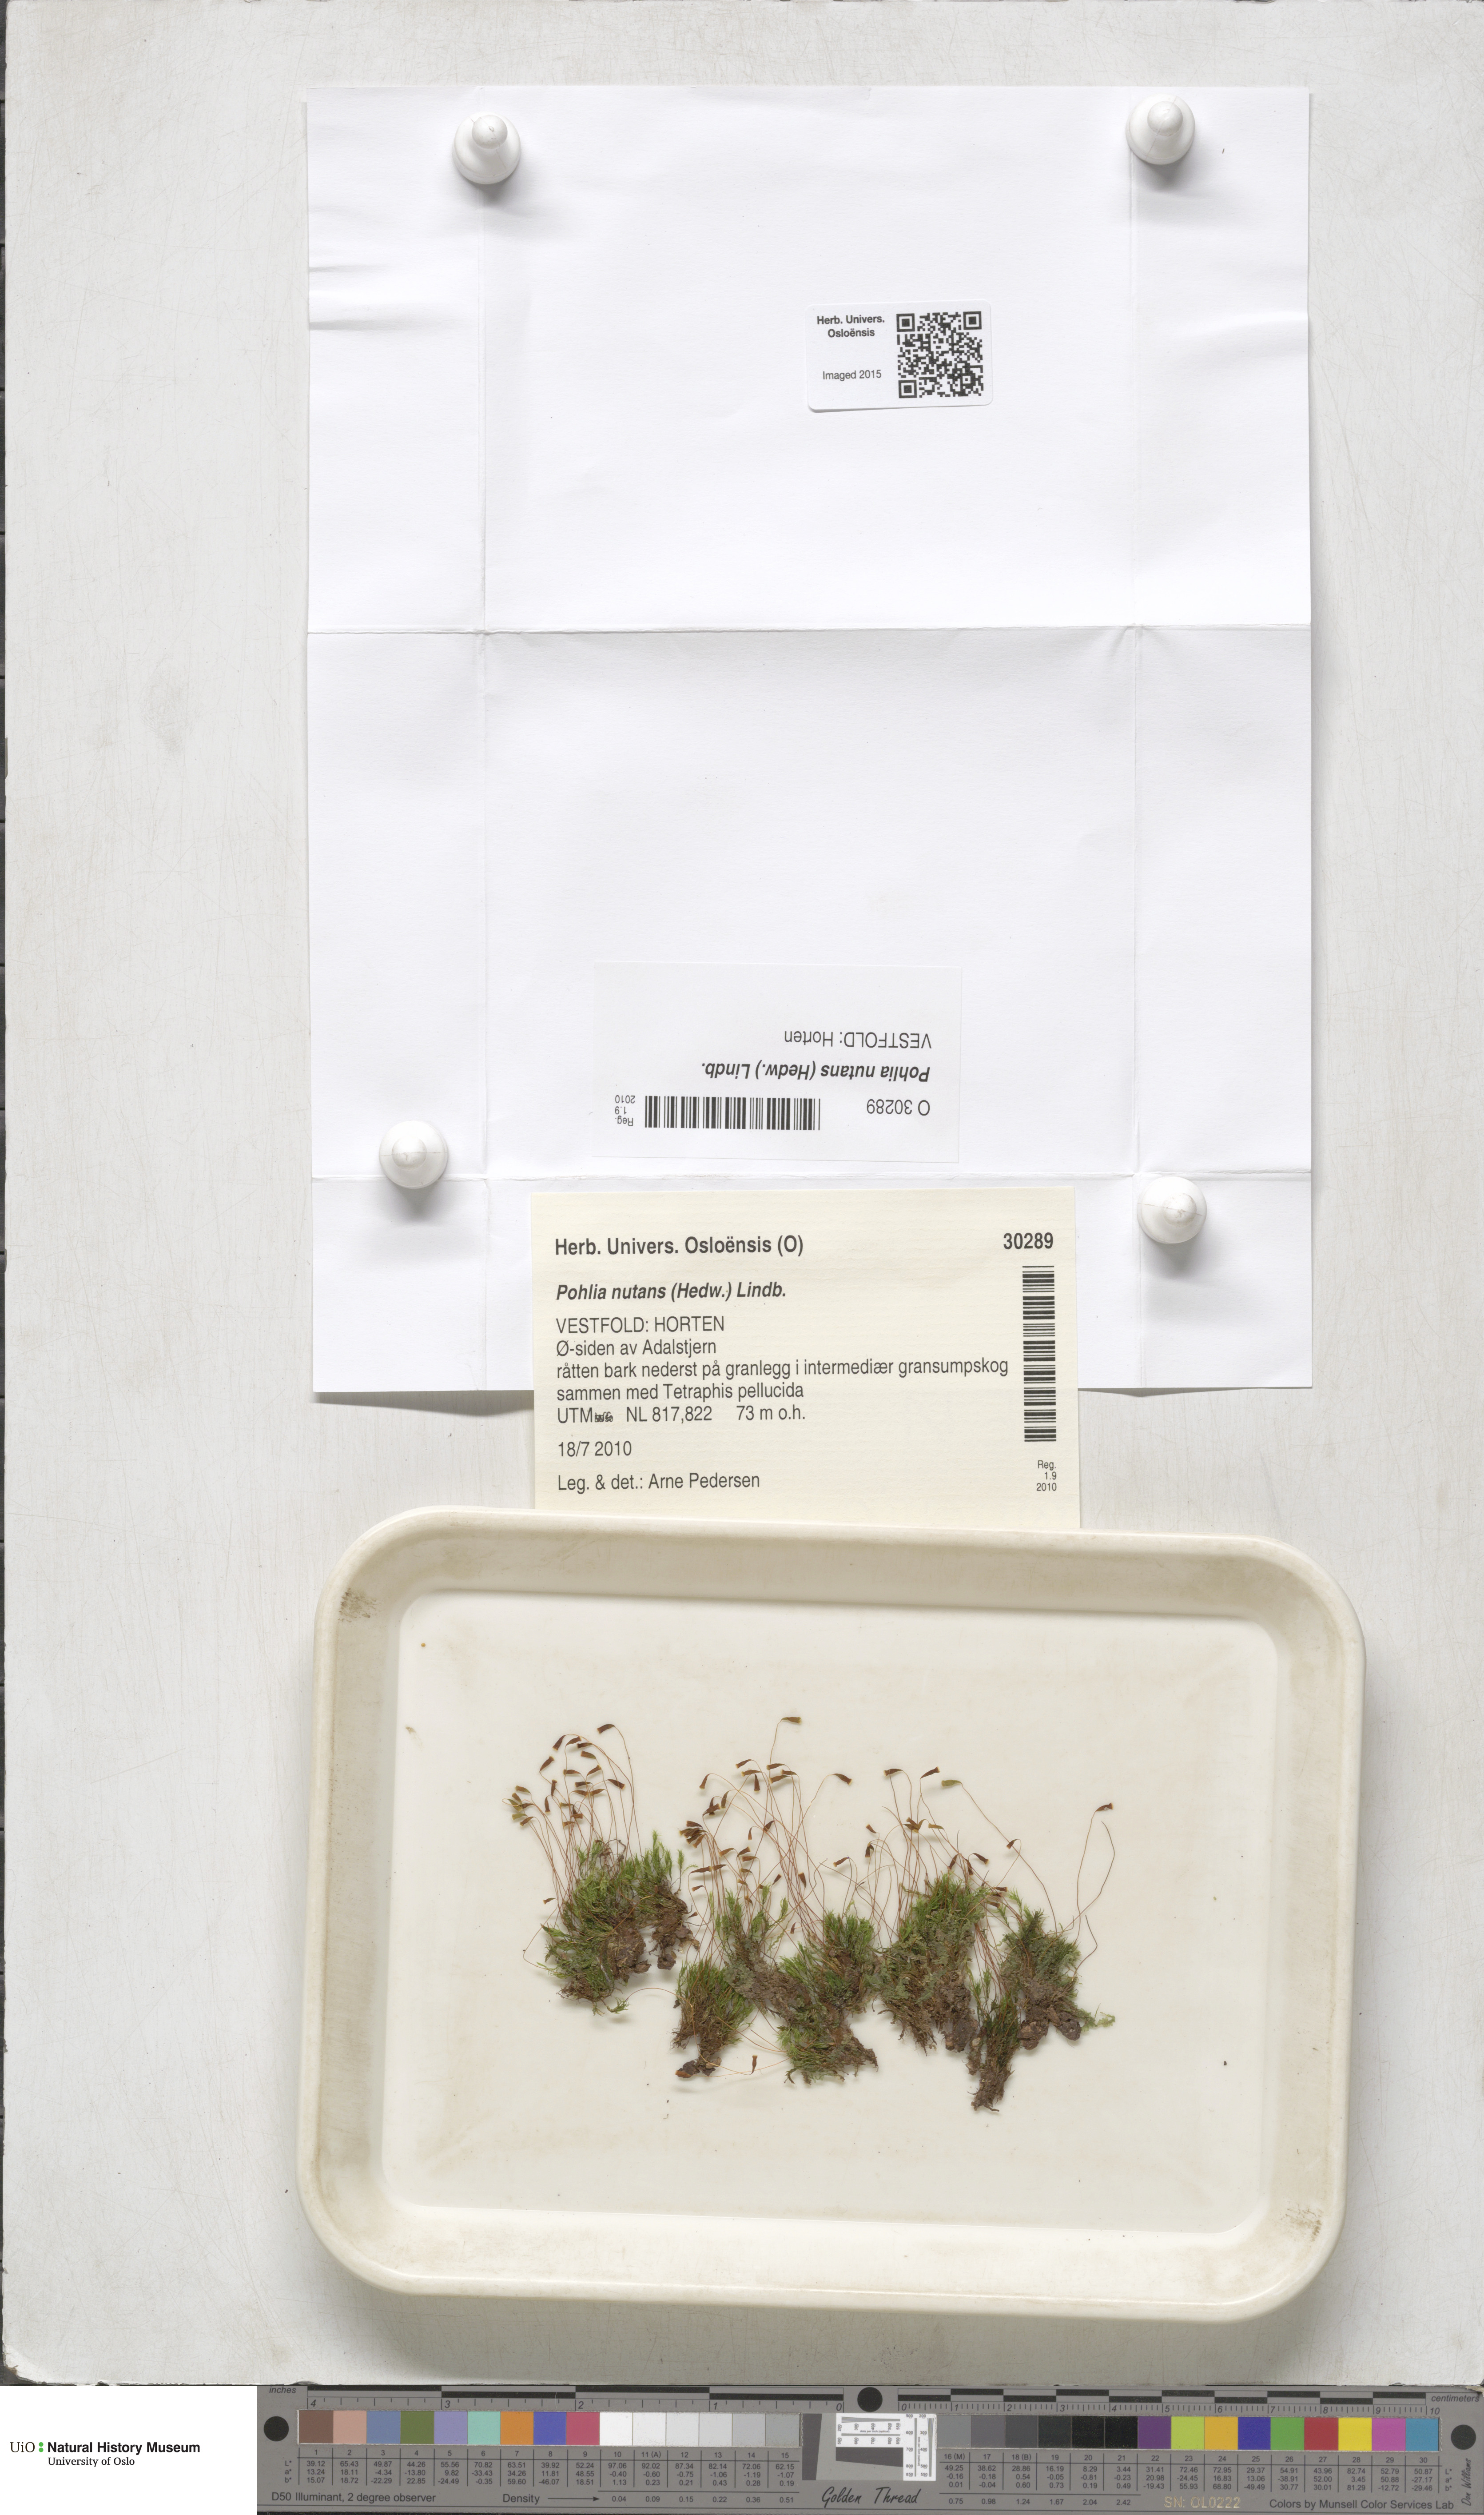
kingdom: Plantae
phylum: Bryophyta
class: Bryopsida
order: Bryales
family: Mniaceae
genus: Pohlia
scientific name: Pohlia nutans
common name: Nodding thread-moss
